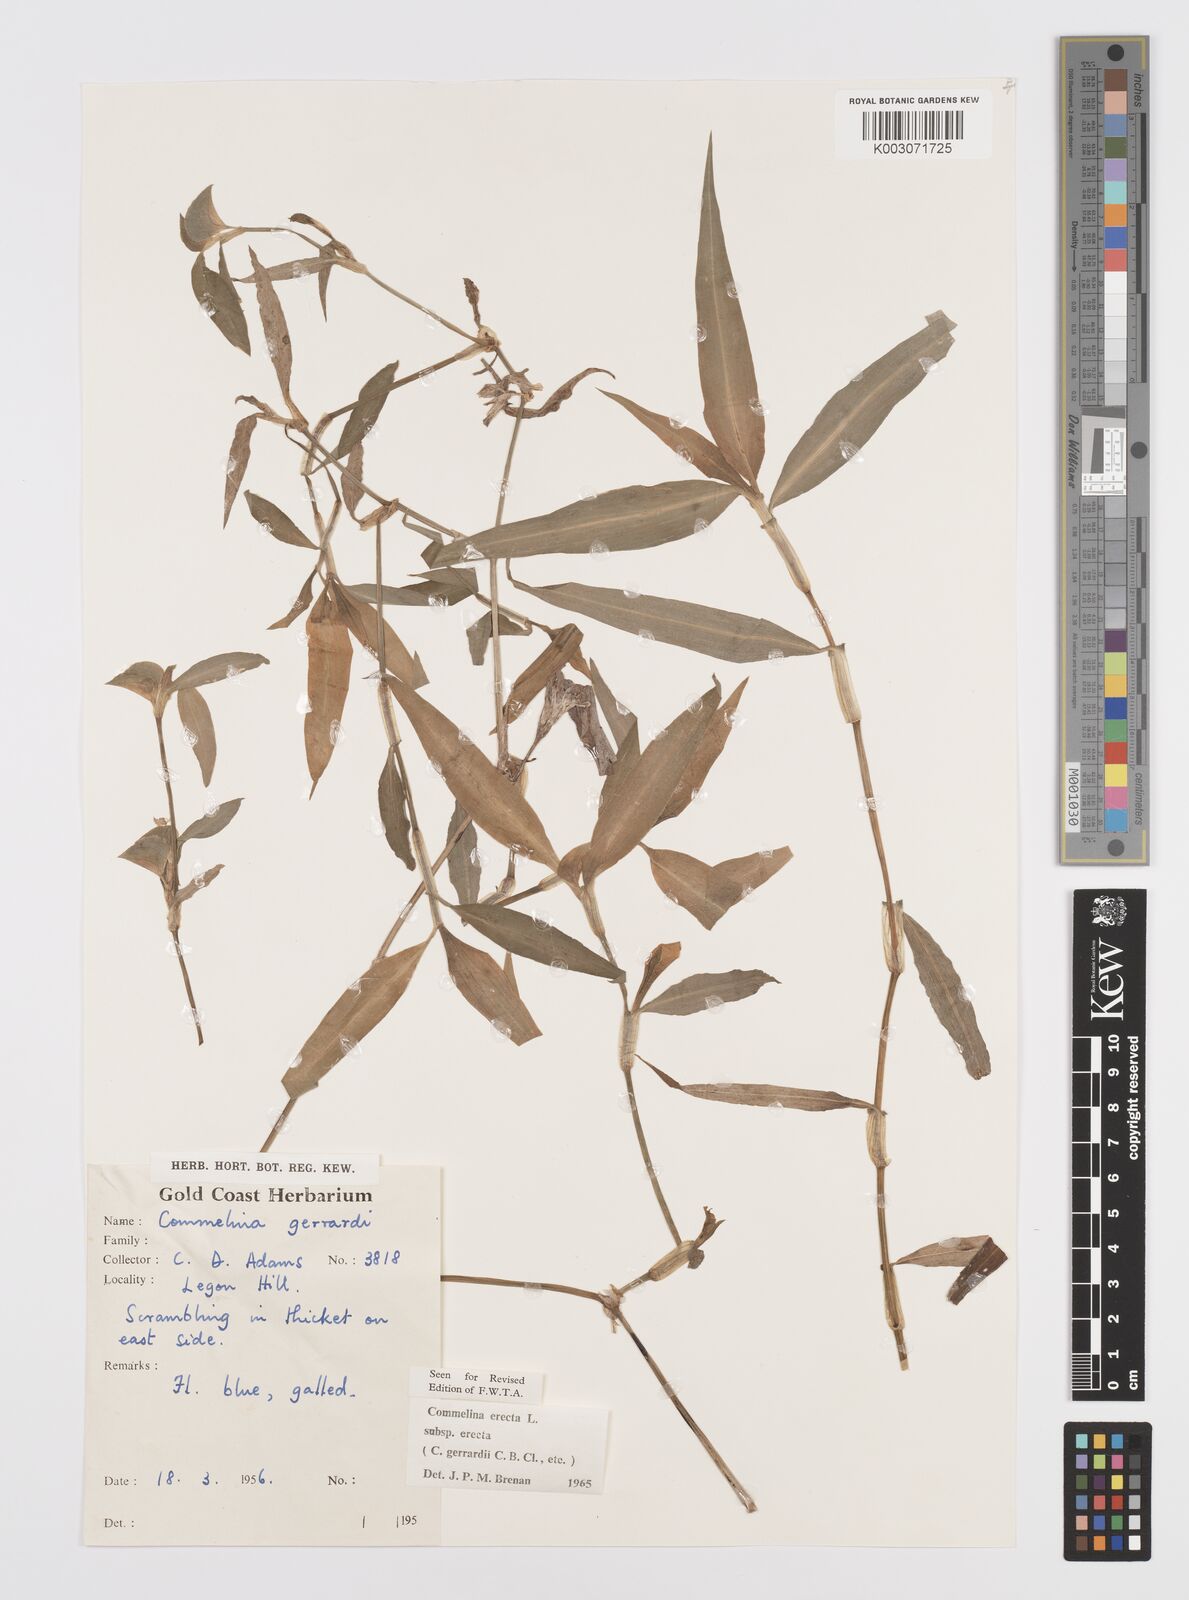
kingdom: Plantae
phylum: Tracheophyta
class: Liliopsida
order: Commelinales
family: Commelinaceae
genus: Commelina
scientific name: Commelina erecta
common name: Blousel blommetjie
